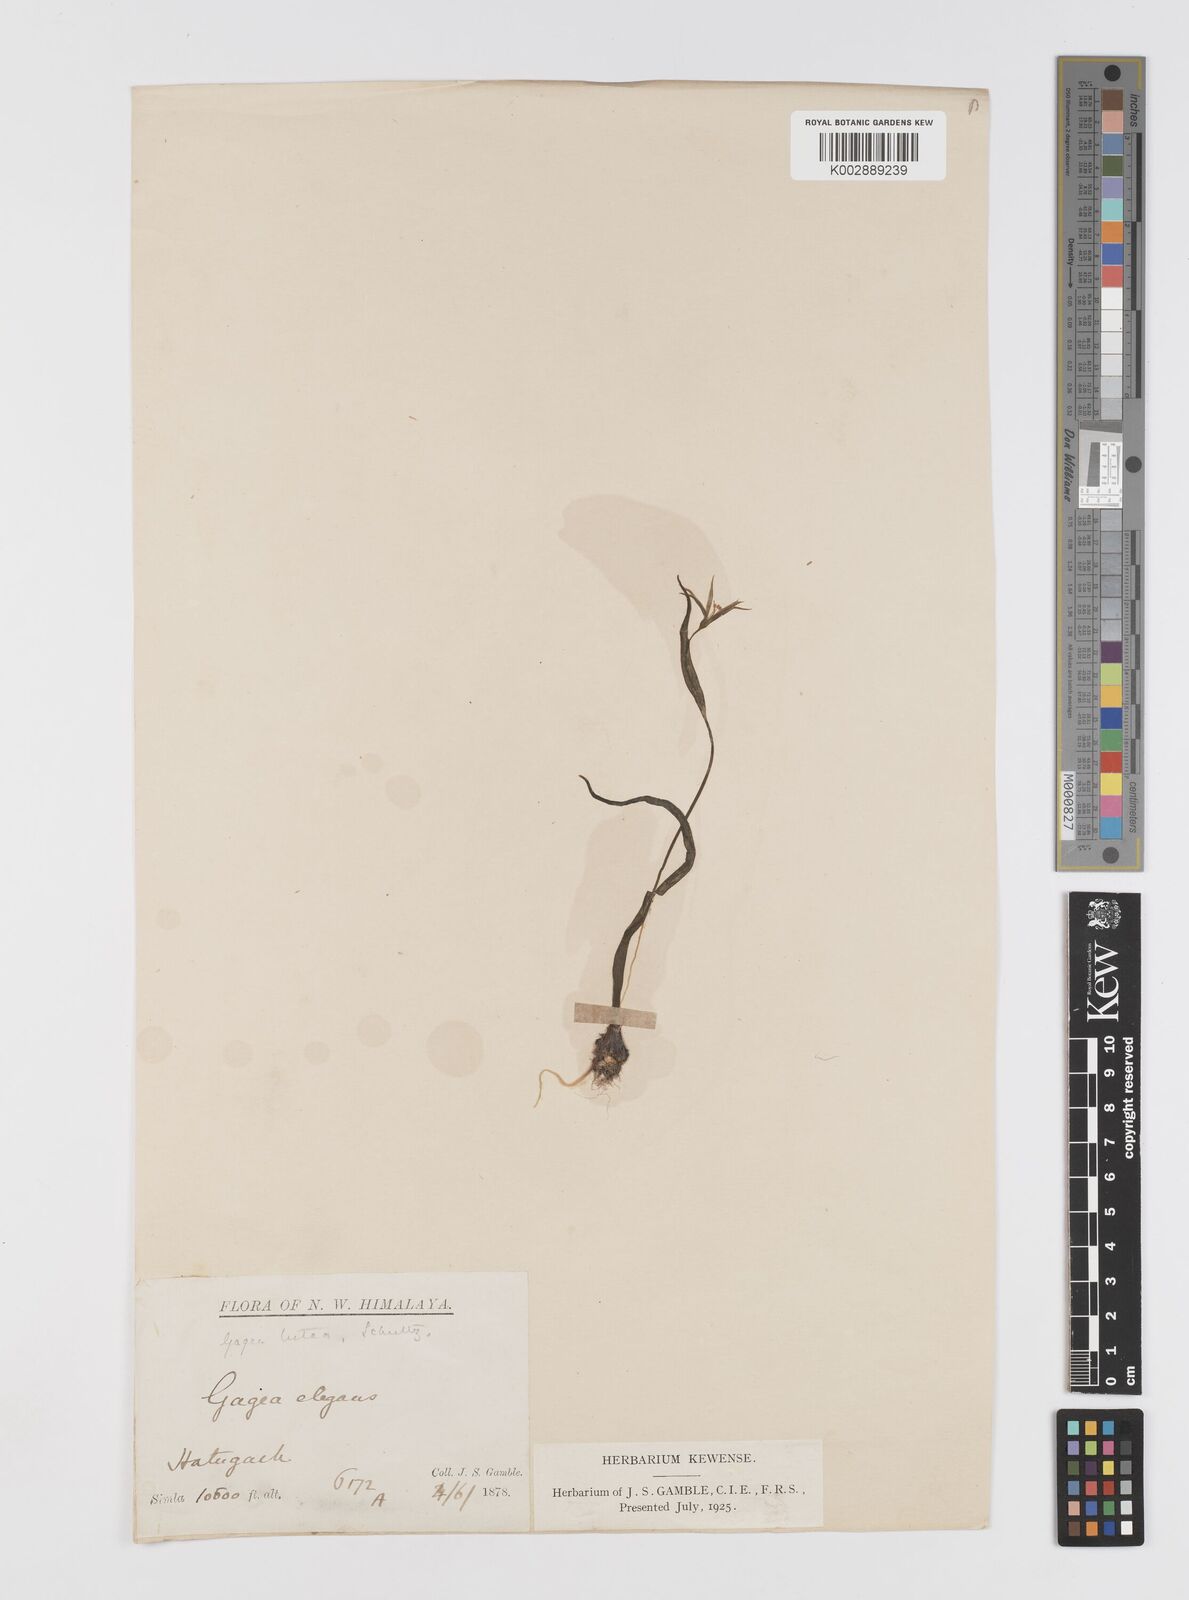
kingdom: Plantae
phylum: Tracheophyta
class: Liliopsida
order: Liliales
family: Liliaceae
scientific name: Liliaceae
